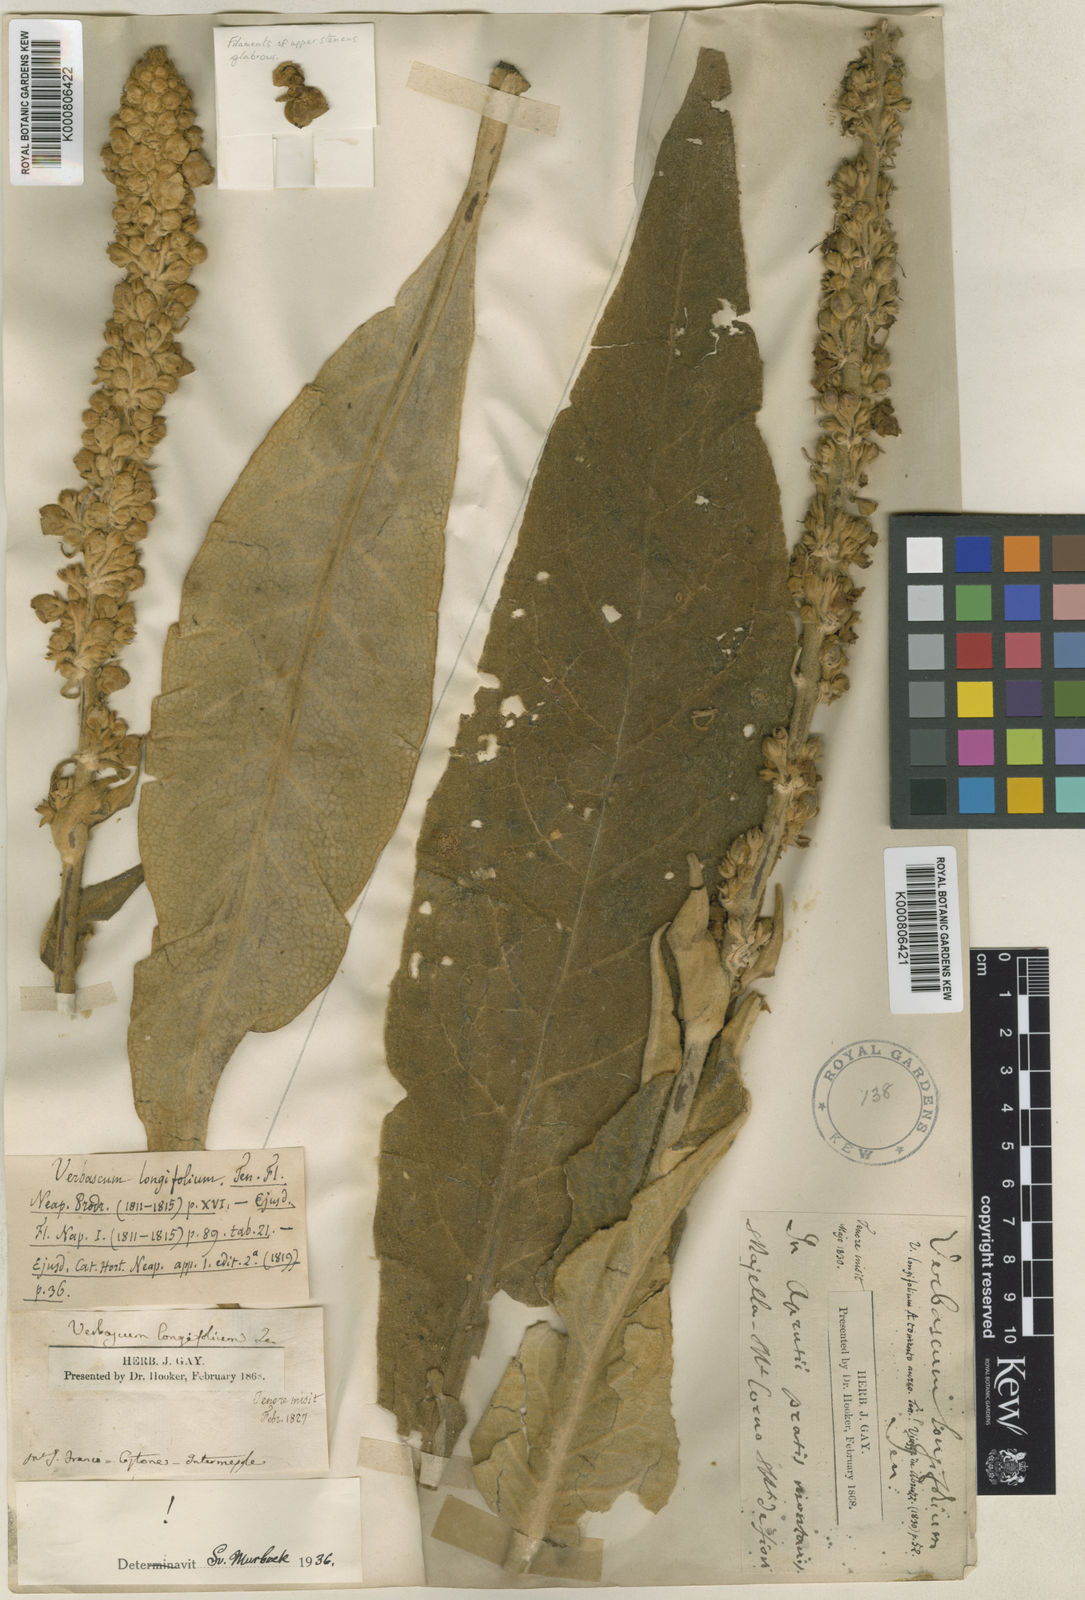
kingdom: Plantae
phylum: Tracheophyta
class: Magnoliopsida
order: Lamiales
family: Scrophulariaceae
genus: Verbascum
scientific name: Verbascum longifolium
